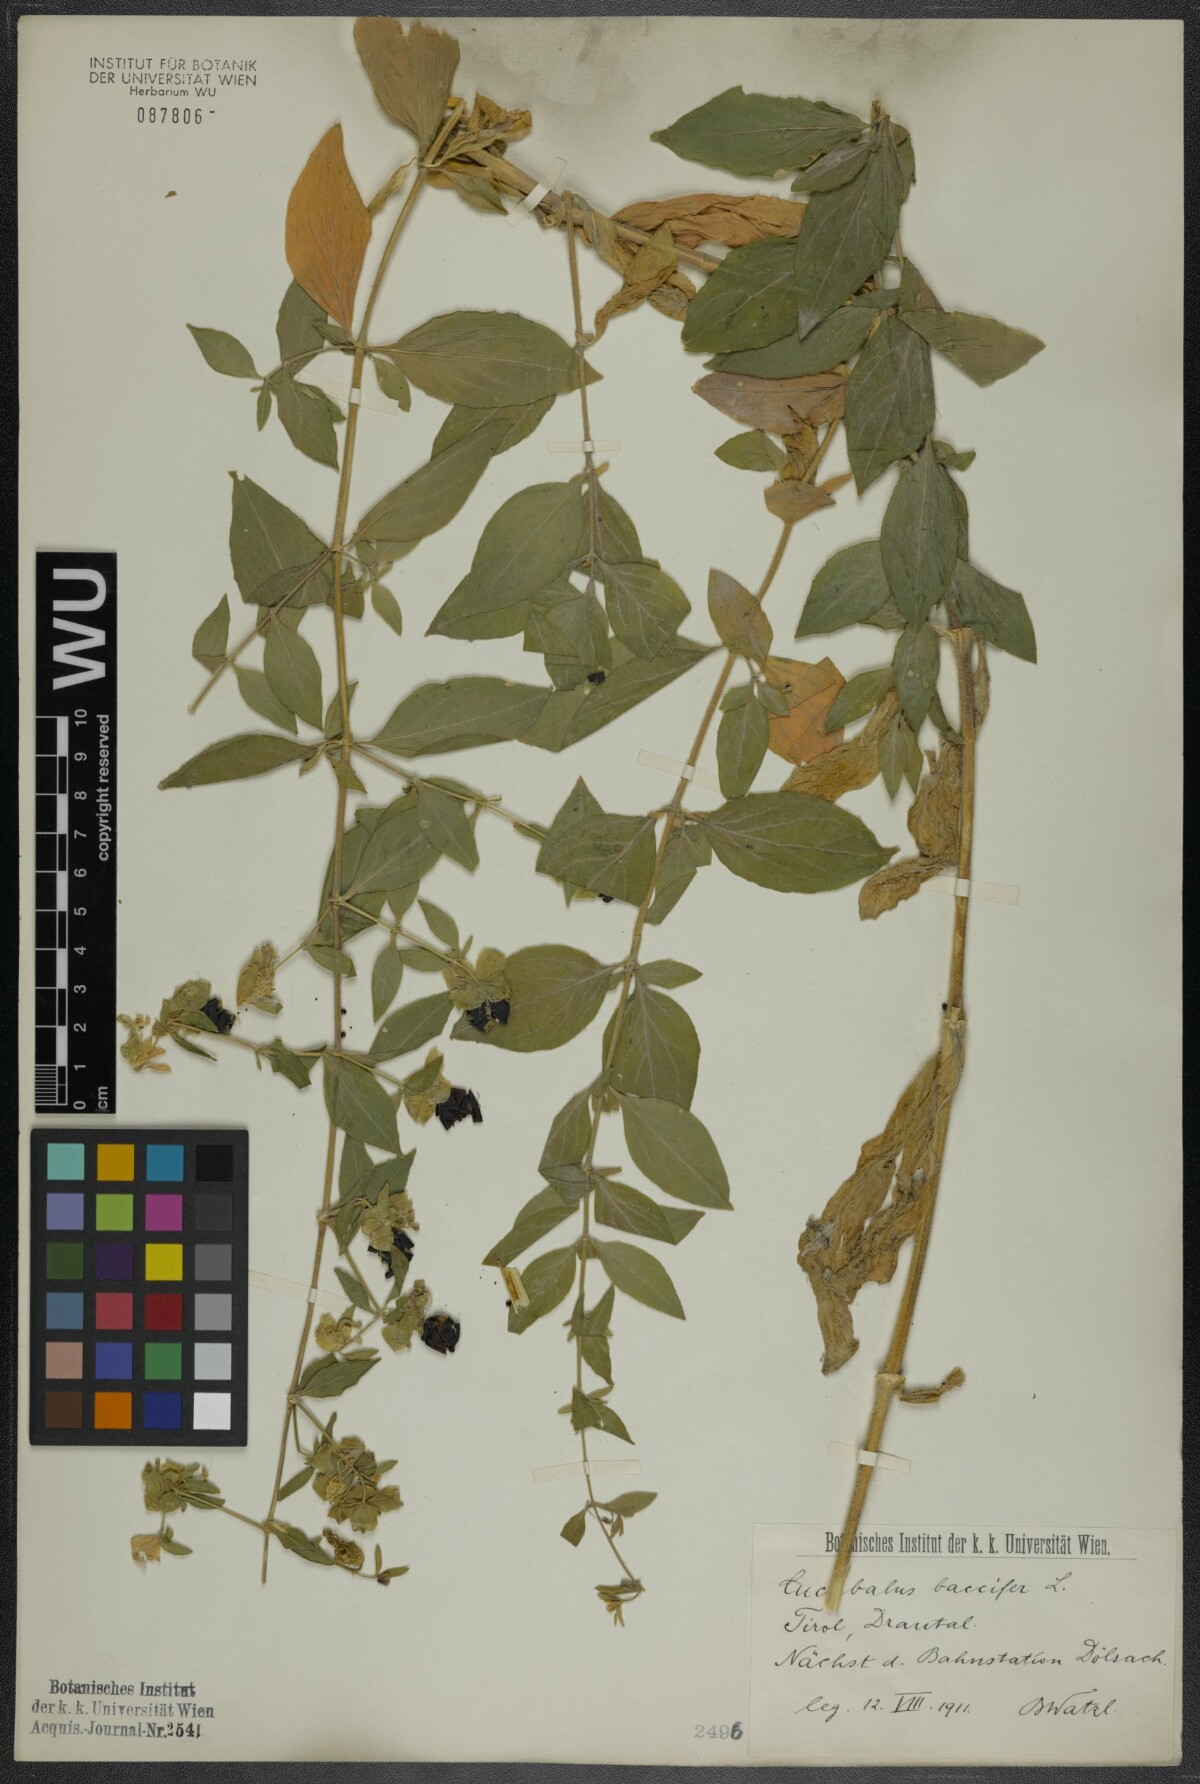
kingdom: Plantae
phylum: Tracheophyta
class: Magnoliopsida
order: Caryophyllales
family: Caryophyllaceae
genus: Silene
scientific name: Silene baccifera
